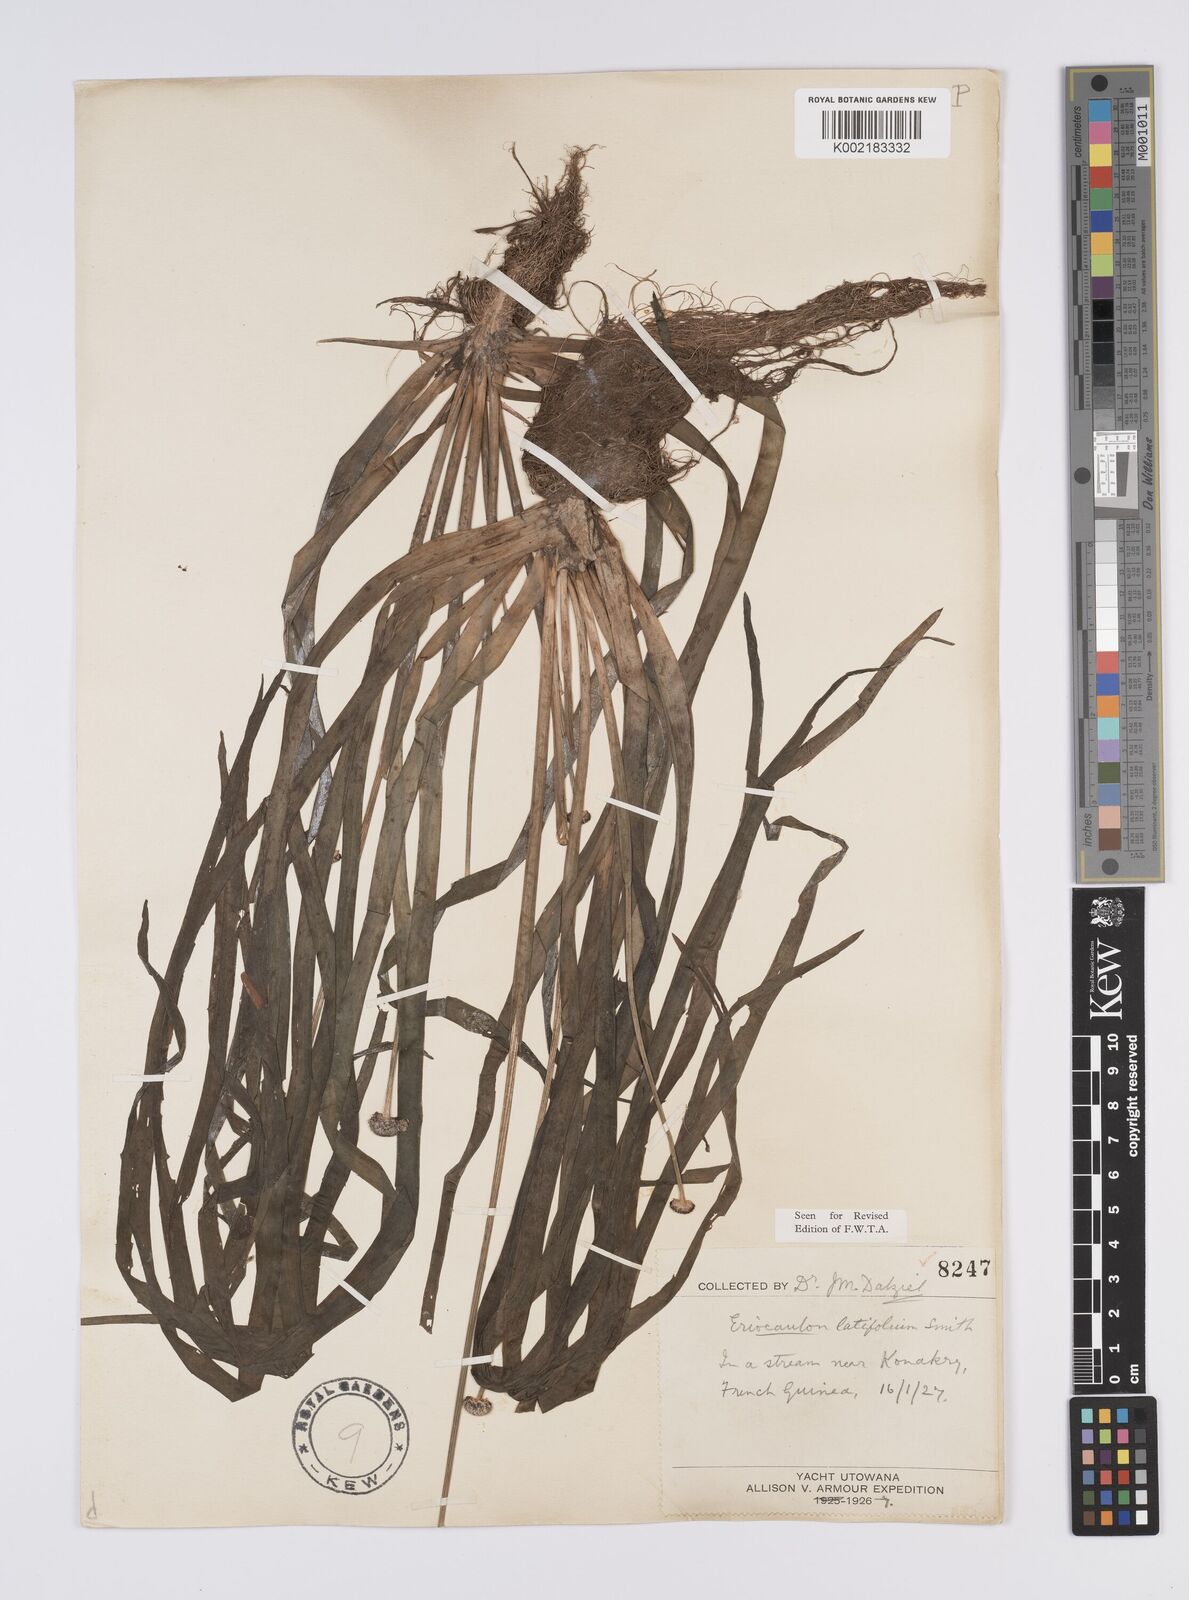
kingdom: Plantae
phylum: Tracheophyta
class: Liliopsida
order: Poales
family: Eriocaulaceae
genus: Eriocaulon
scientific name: Eriocaulon latifolium
